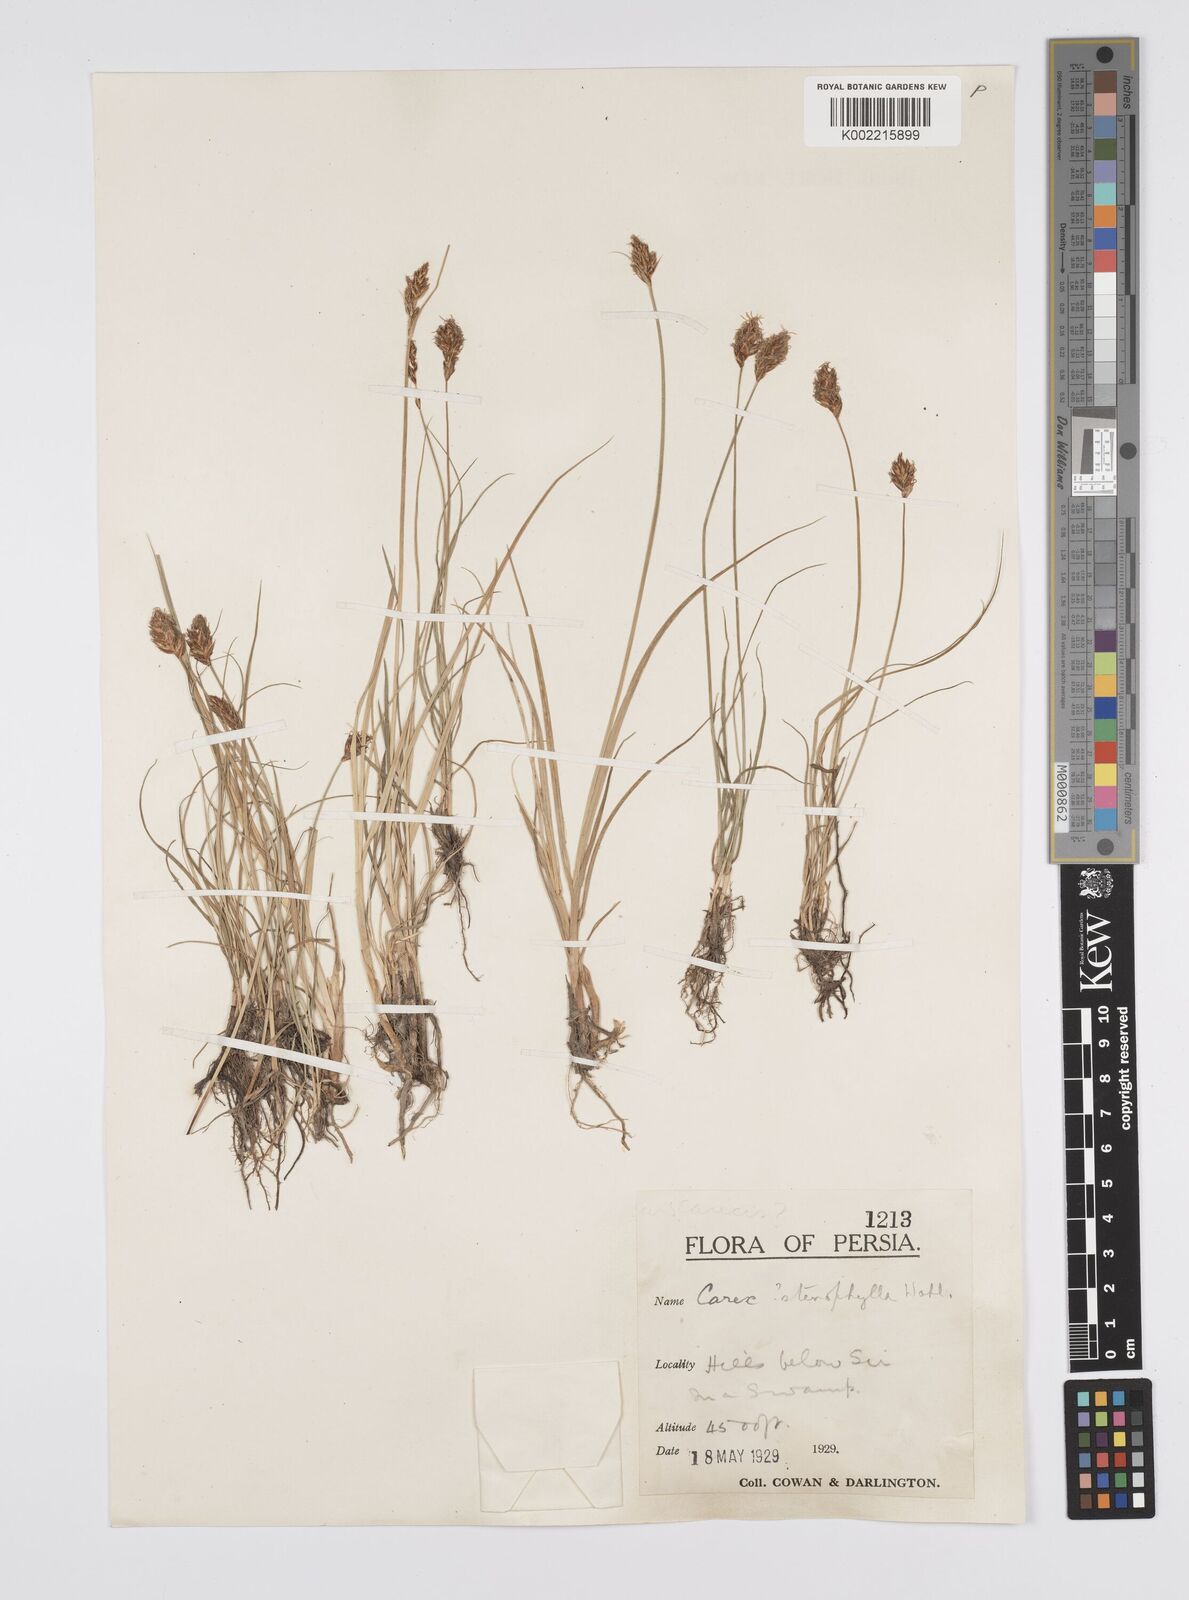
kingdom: Plantae
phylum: Tracheophyta
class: Liliopsida
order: Poales
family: Cyperaceae
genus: Carex
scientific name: Carex stenophylla
